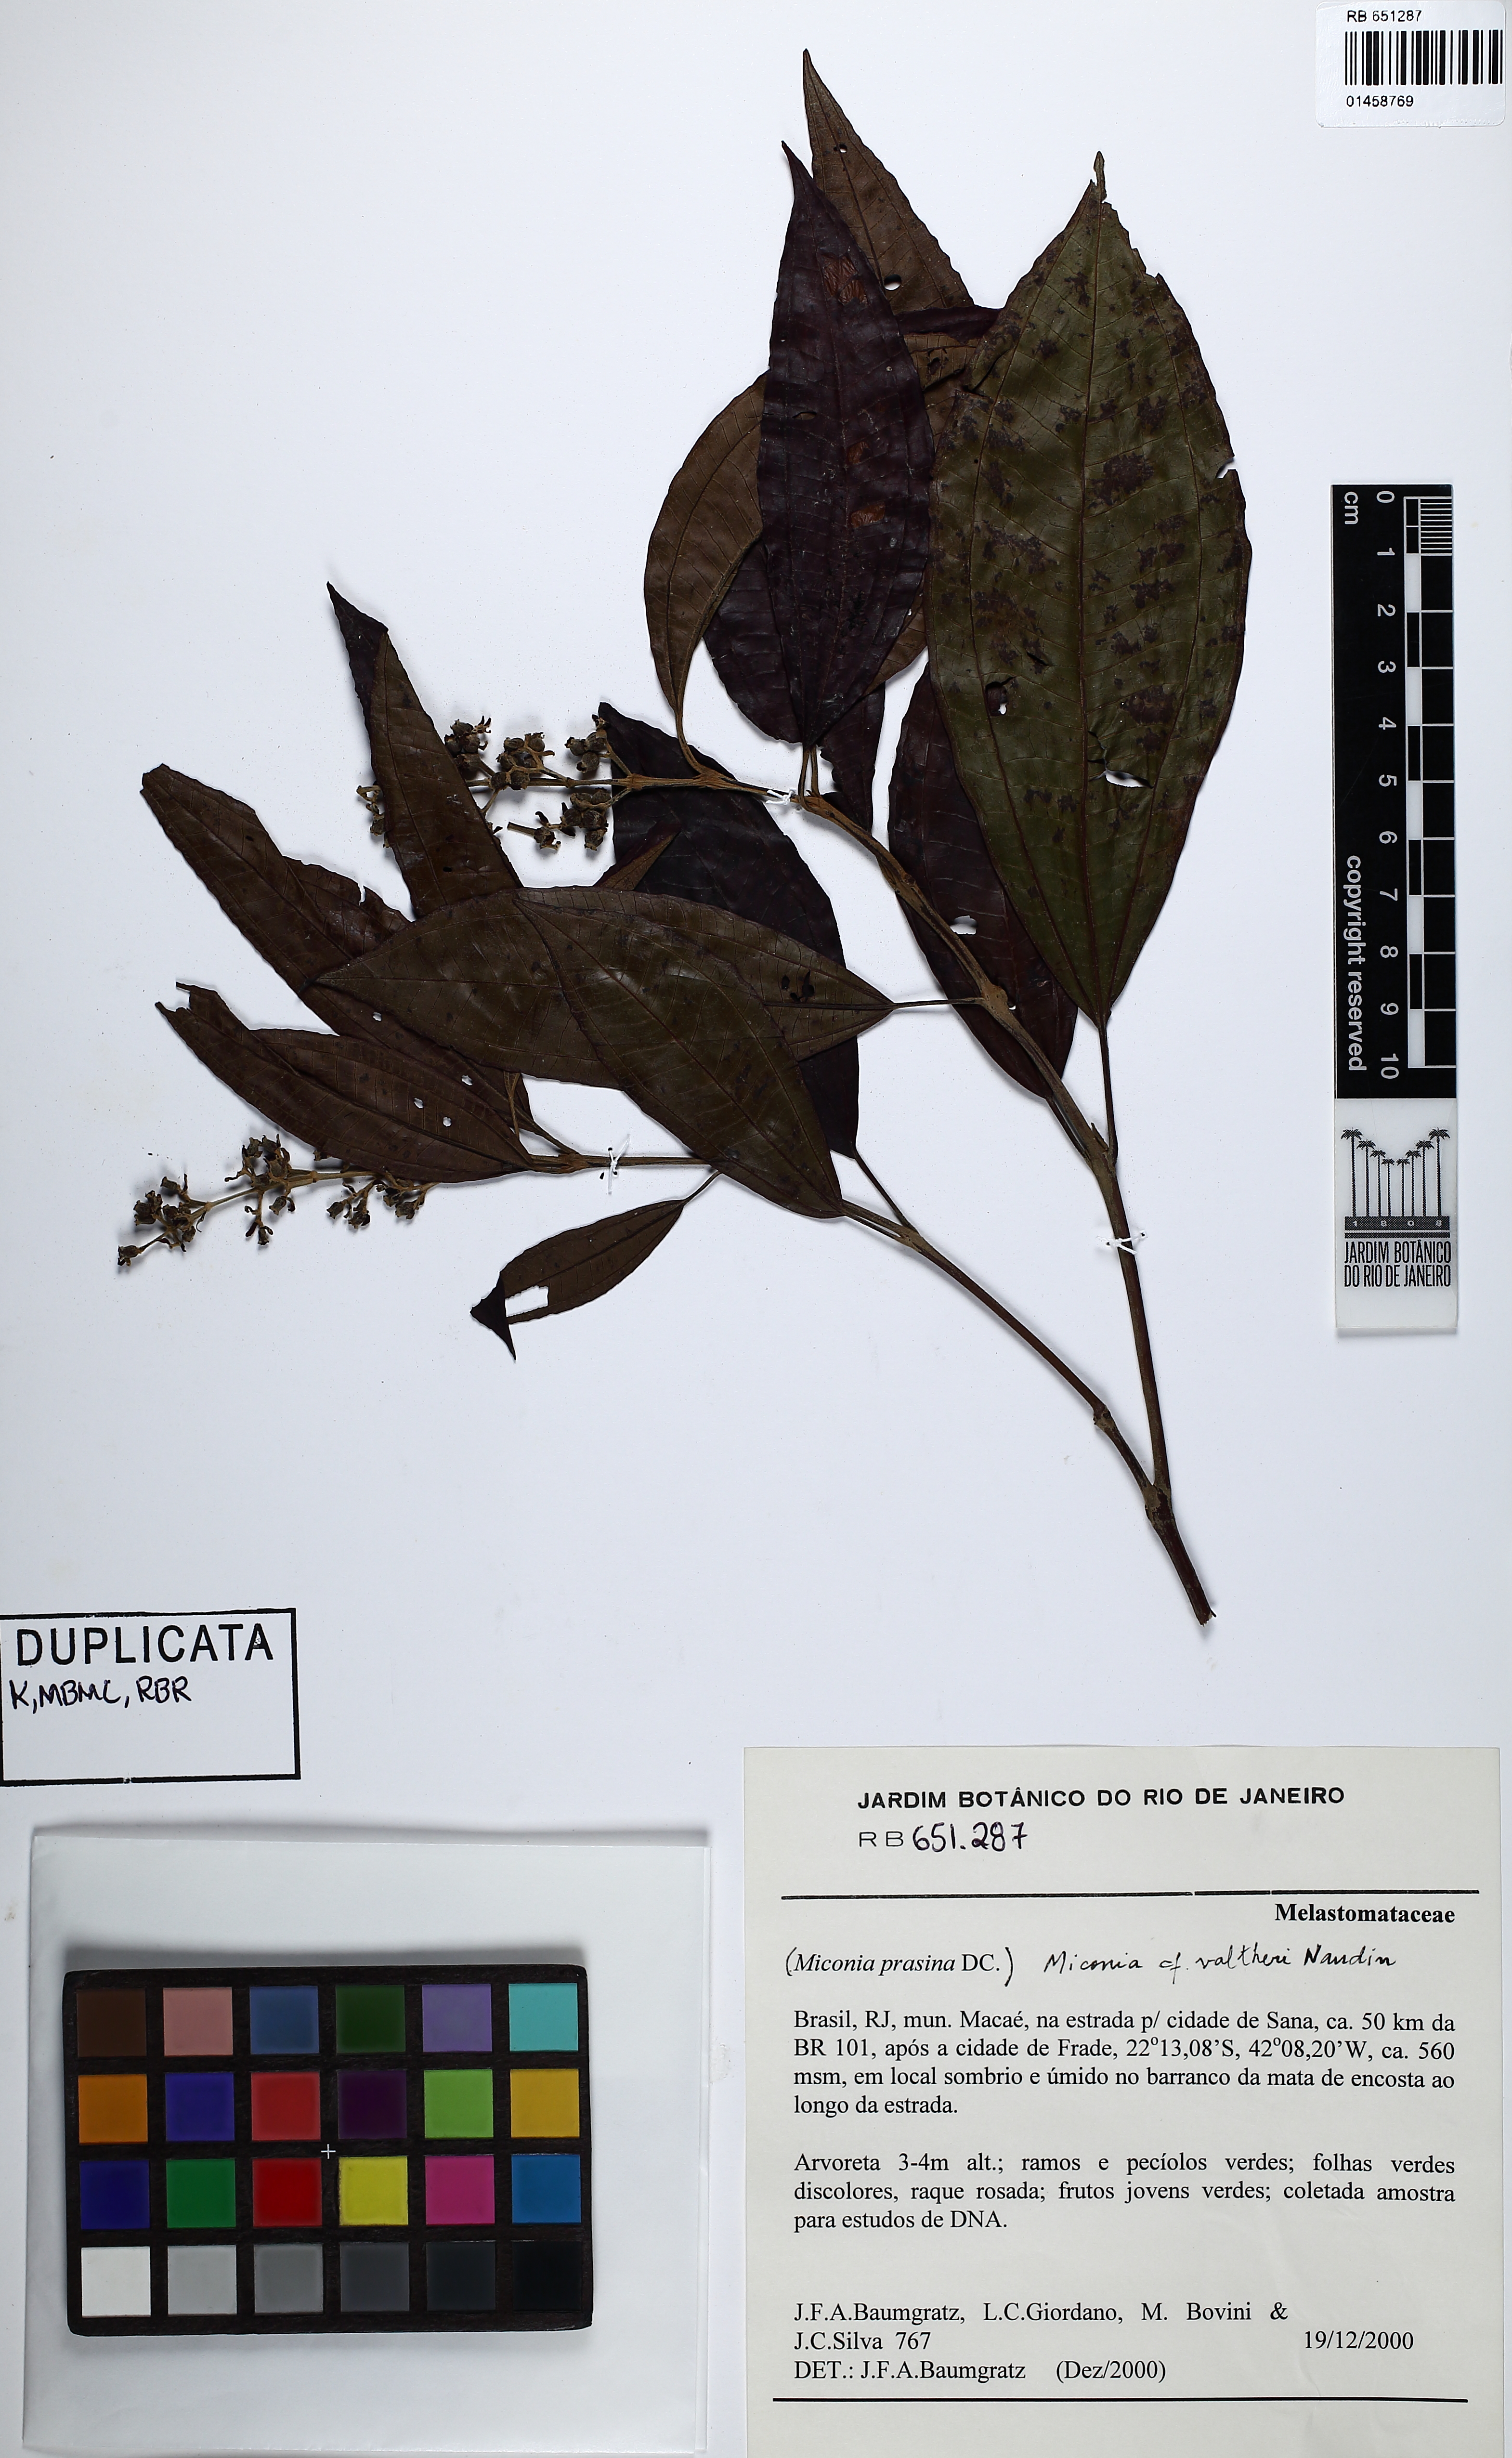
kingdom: Plantae
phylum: Tracheophyta
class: Magnoliopsida
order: Myrtales
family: Melastomataceae
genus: Miconia
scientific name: Miconia valtheri
